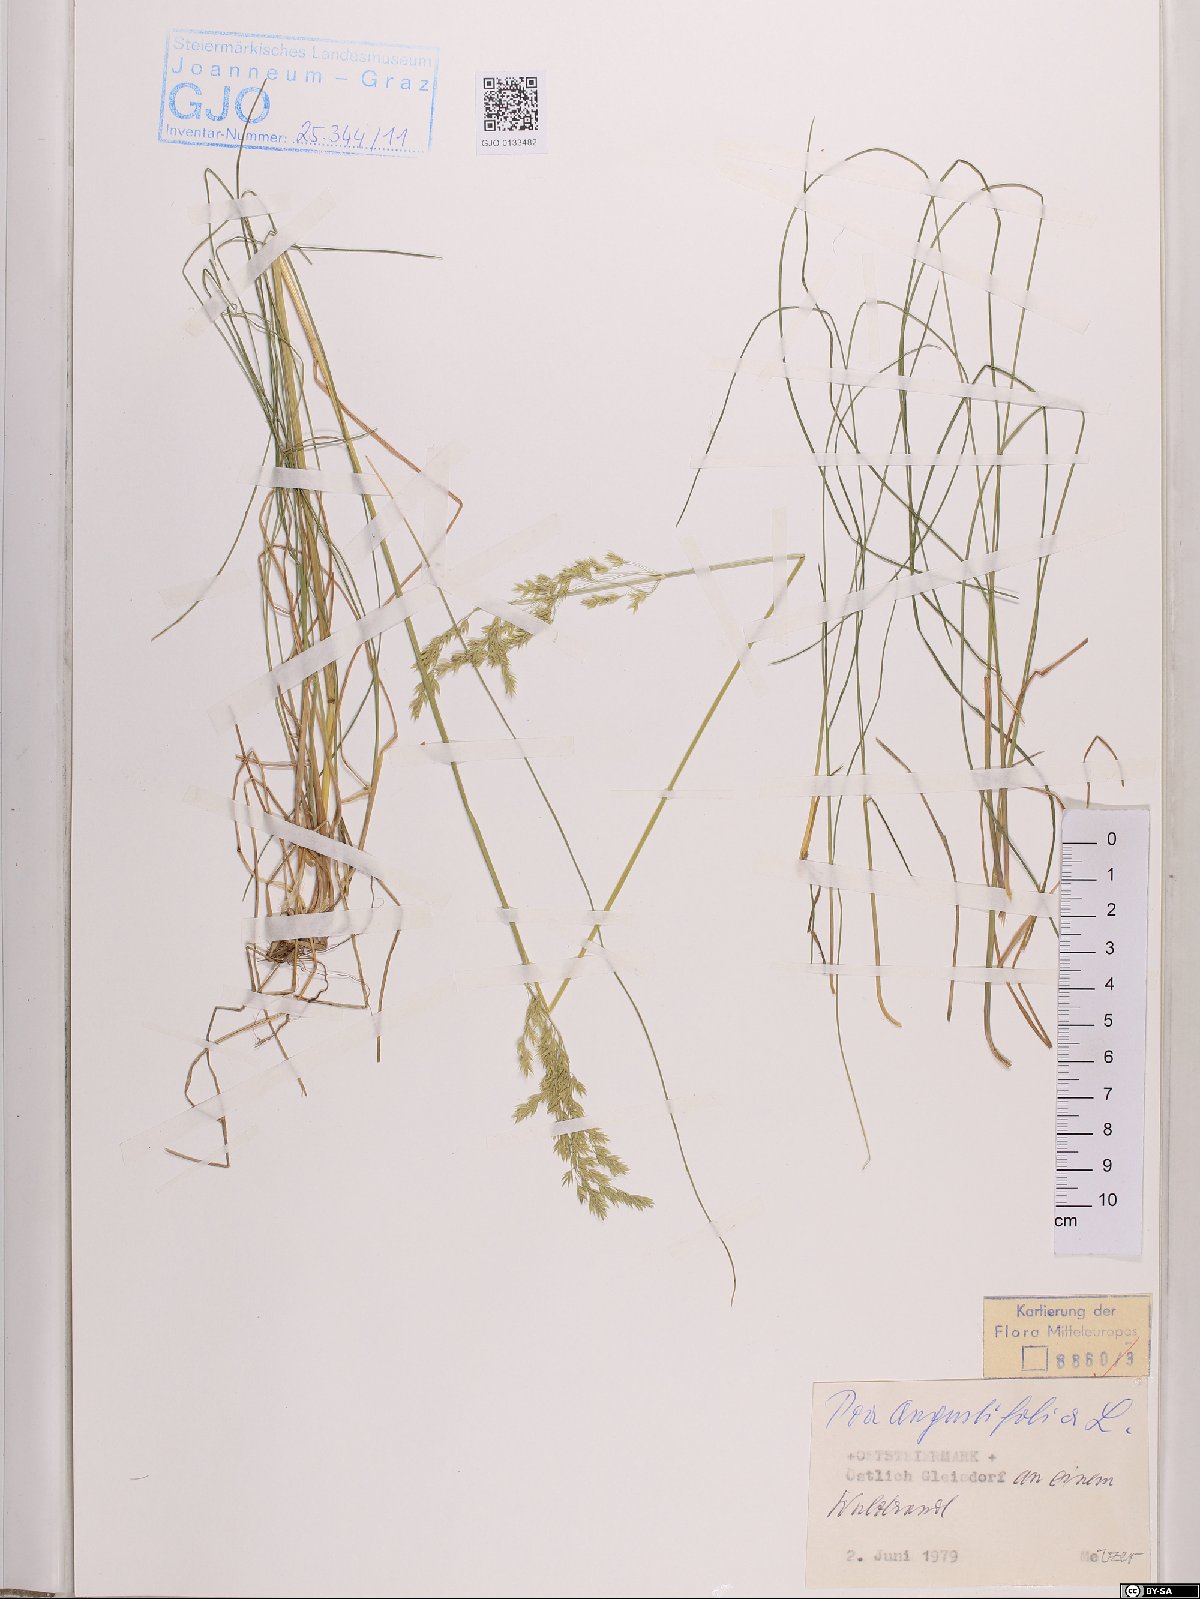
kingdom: Plantae
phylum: Tracheophyta
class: Liliopsida
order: Poales
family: Poaceae
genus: Poa
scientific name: Poa angustifolia
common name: Narrow-leaved meadow-grass
